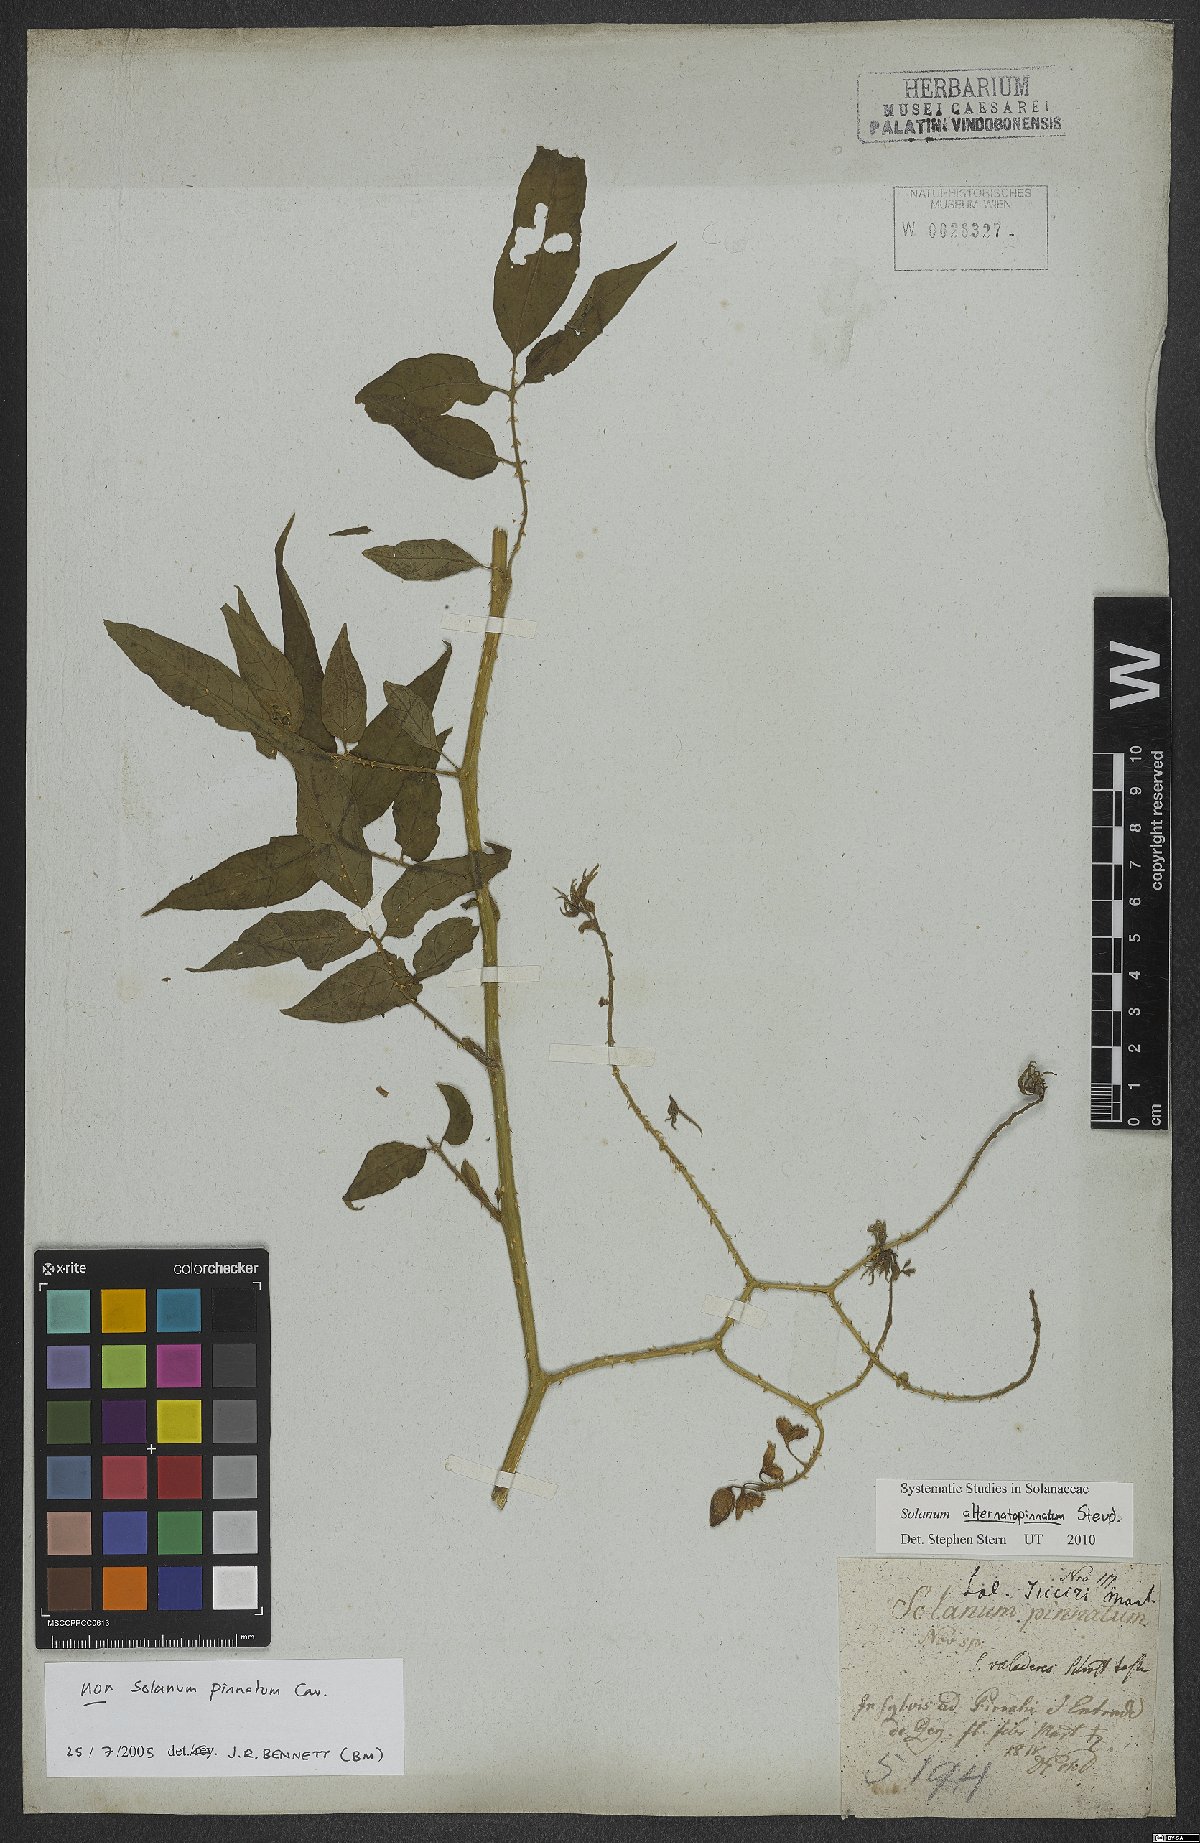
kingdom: Plantae
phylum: Tracheophyta
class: Magnoliopsida
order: Solanales
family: Solanaceae
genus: Solanum
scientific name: Solanum alternatopinnatum
